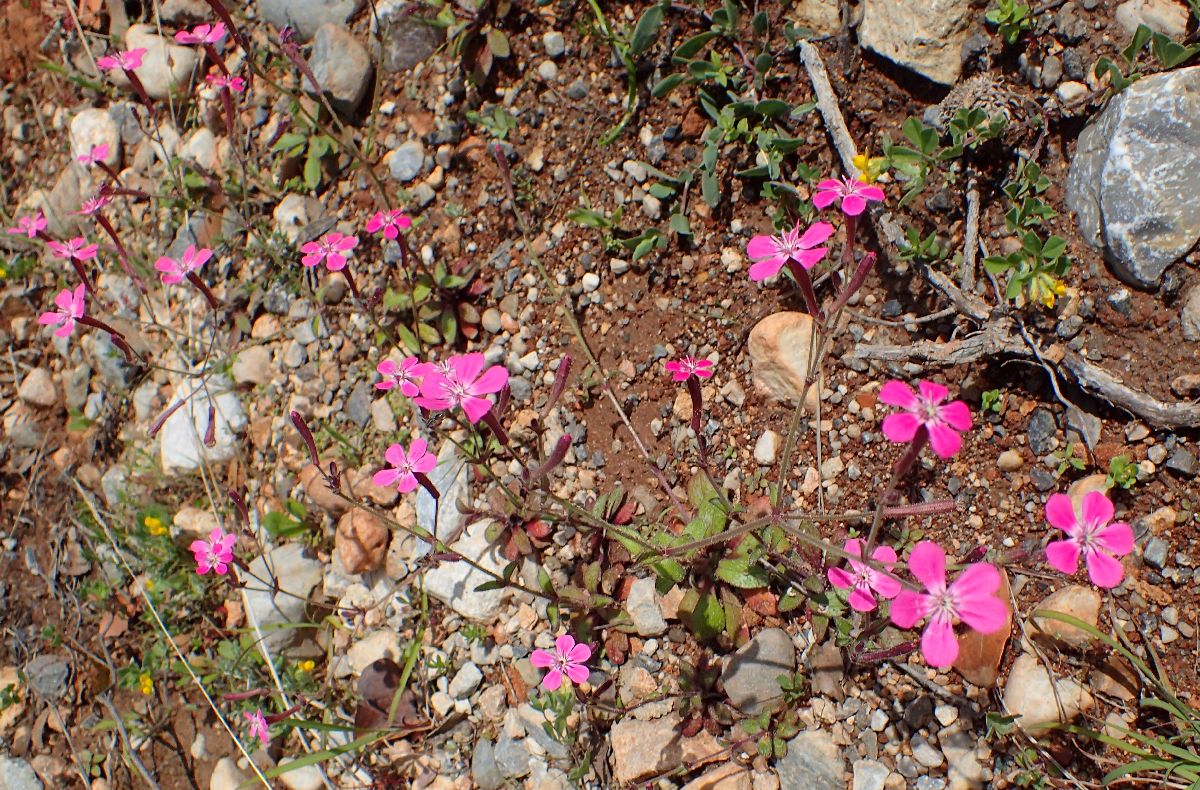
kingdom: Plantae
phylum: Tracheophyta
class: Magnoliopsida
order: Caryophyllales
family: Caryophyllaceae
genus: Silene
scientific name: Silene integripetala
